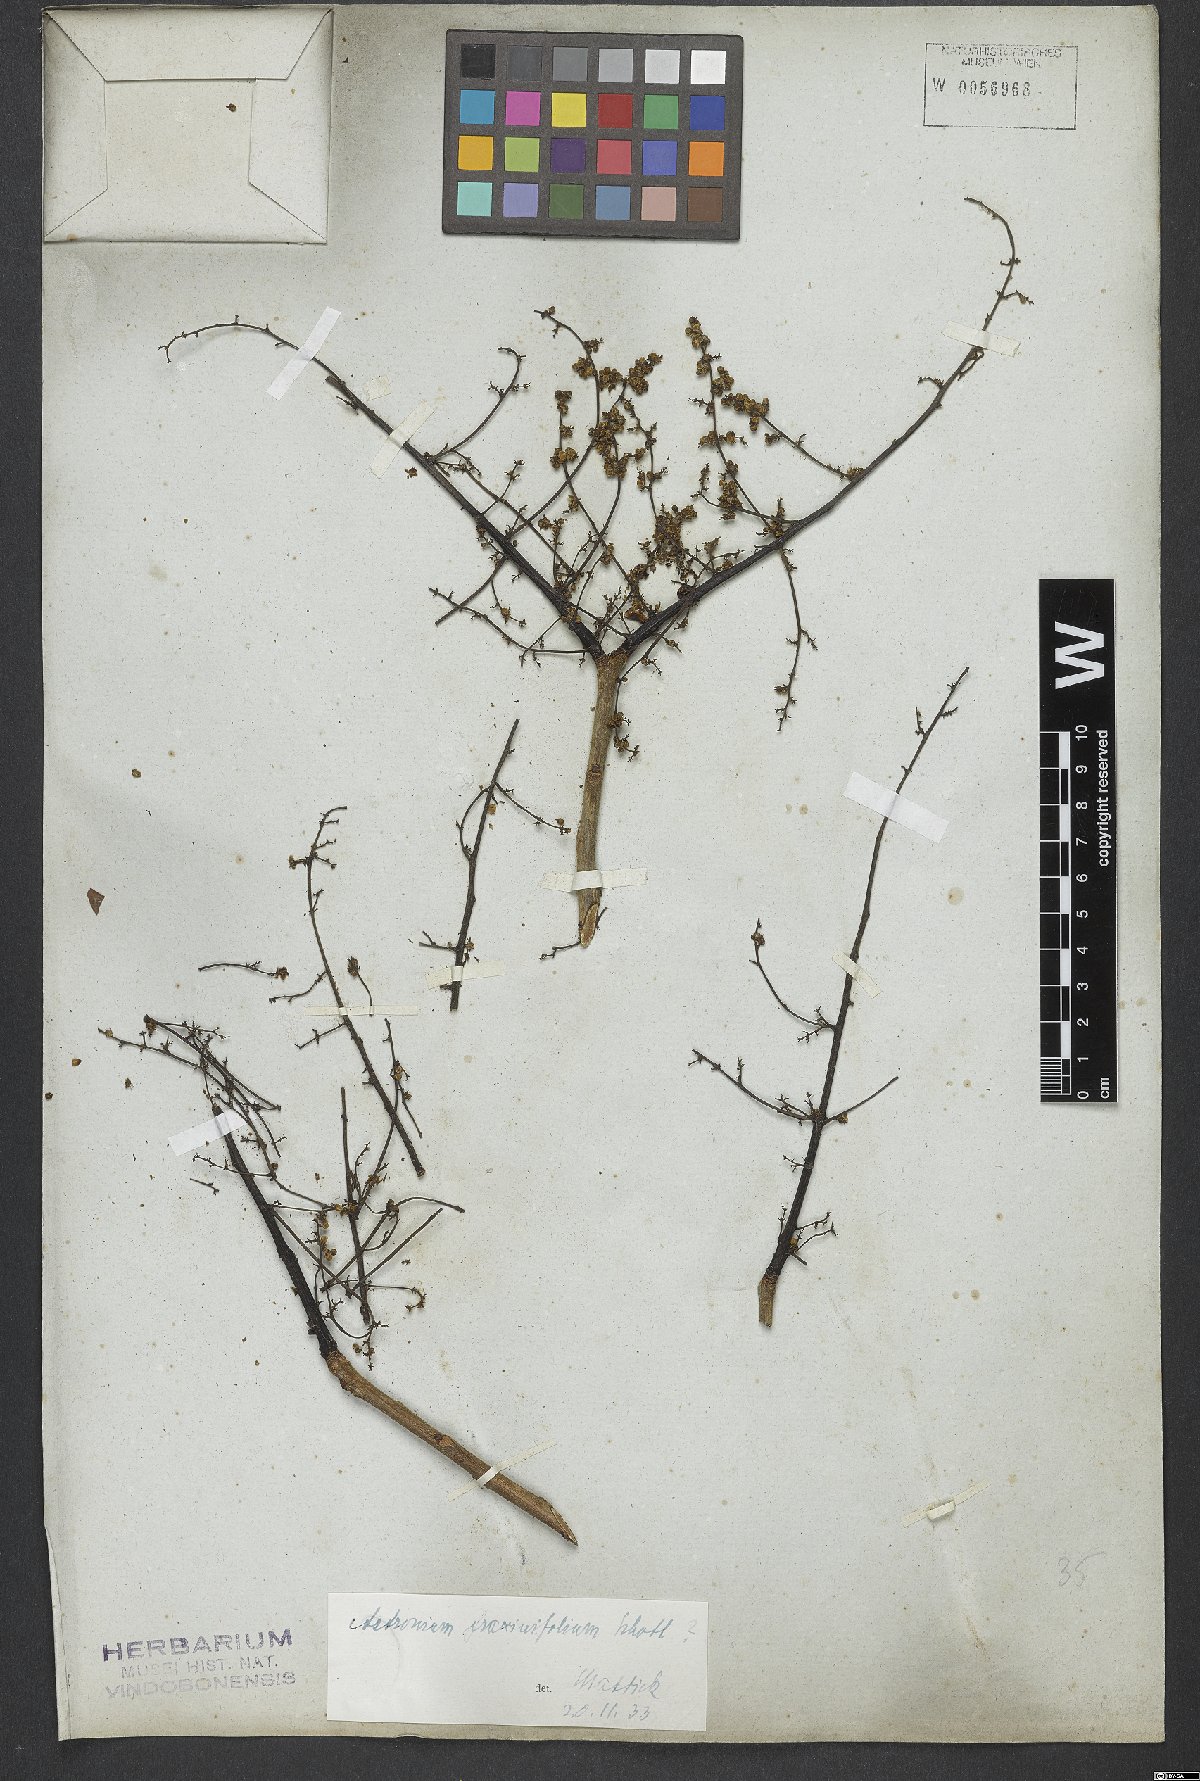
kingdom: Plantae
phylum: Tracheophyta
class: Magnoliopsida
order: Sapindales
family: Anacardiaceae
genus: Astronium
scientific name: Astronium fraxinifolium
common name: Tigerwood
